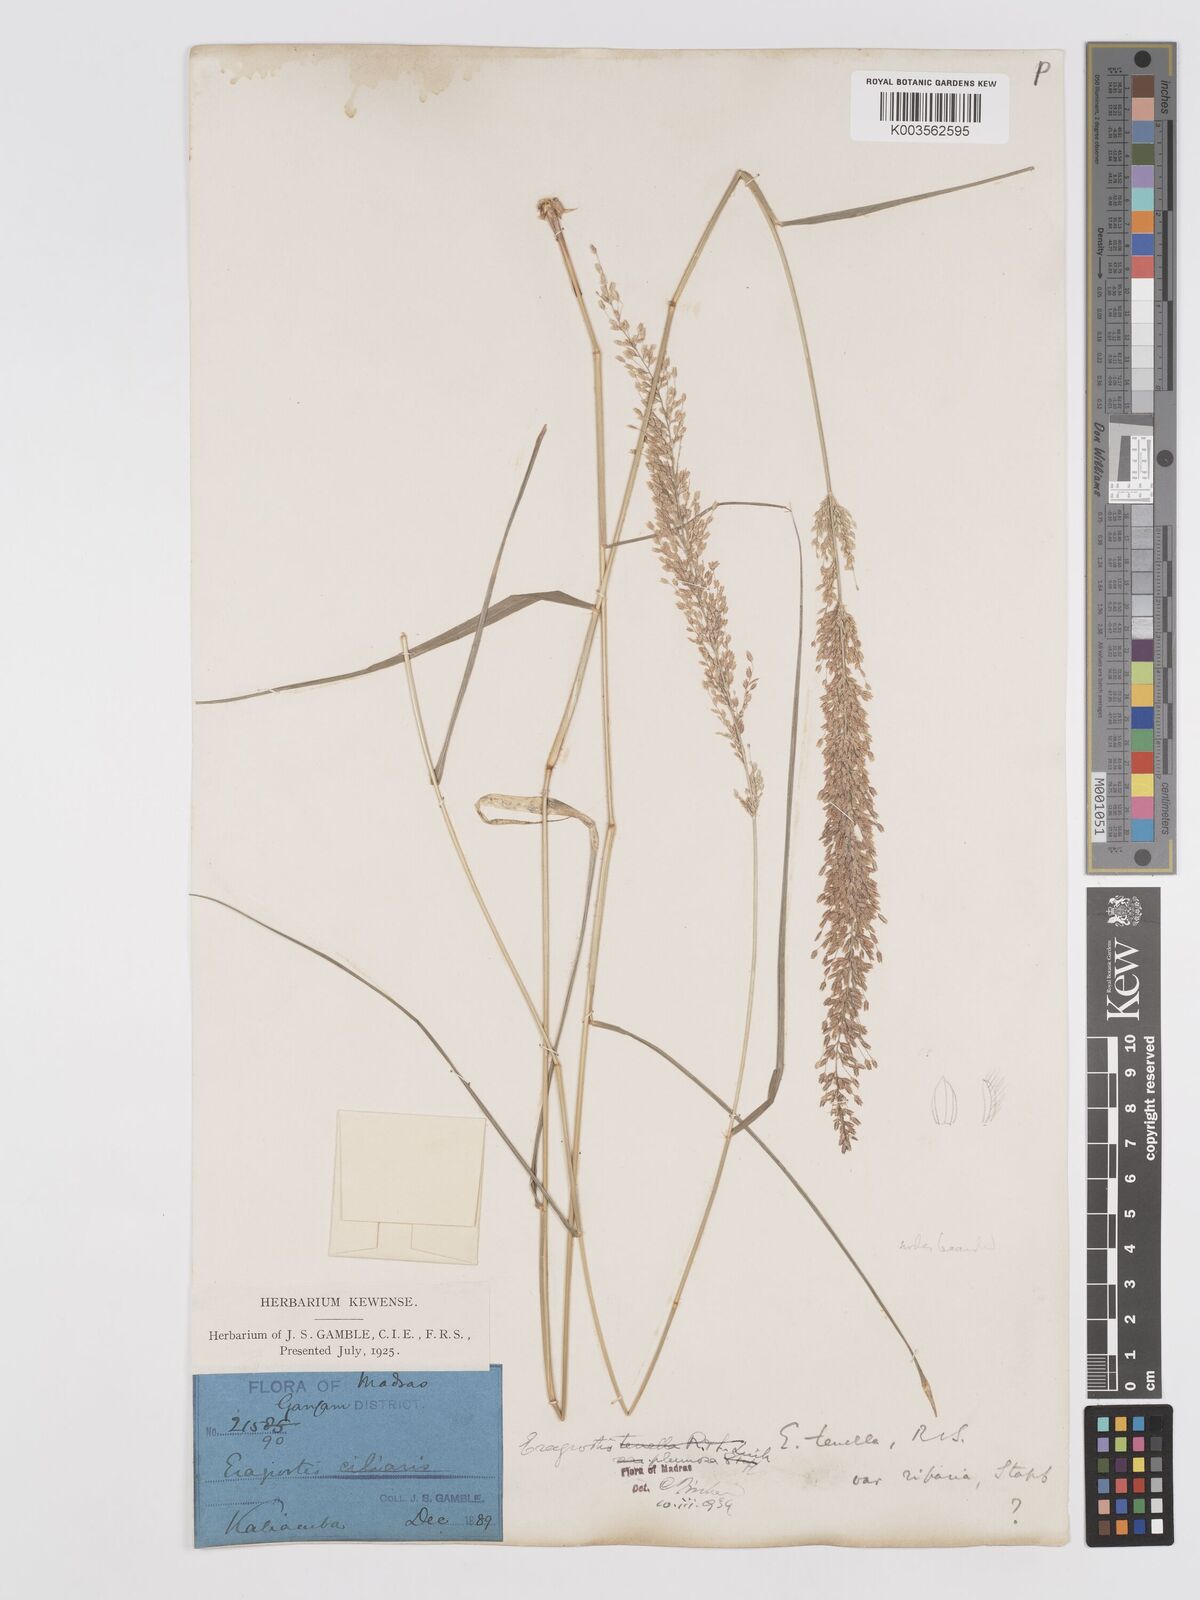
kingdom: Plantae
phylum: Tracheophyta
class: Liliopsida
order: Poales
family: Poaceae
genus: Eragrostis
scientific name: Eragrostis tenella
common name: Japanese lovegrass
